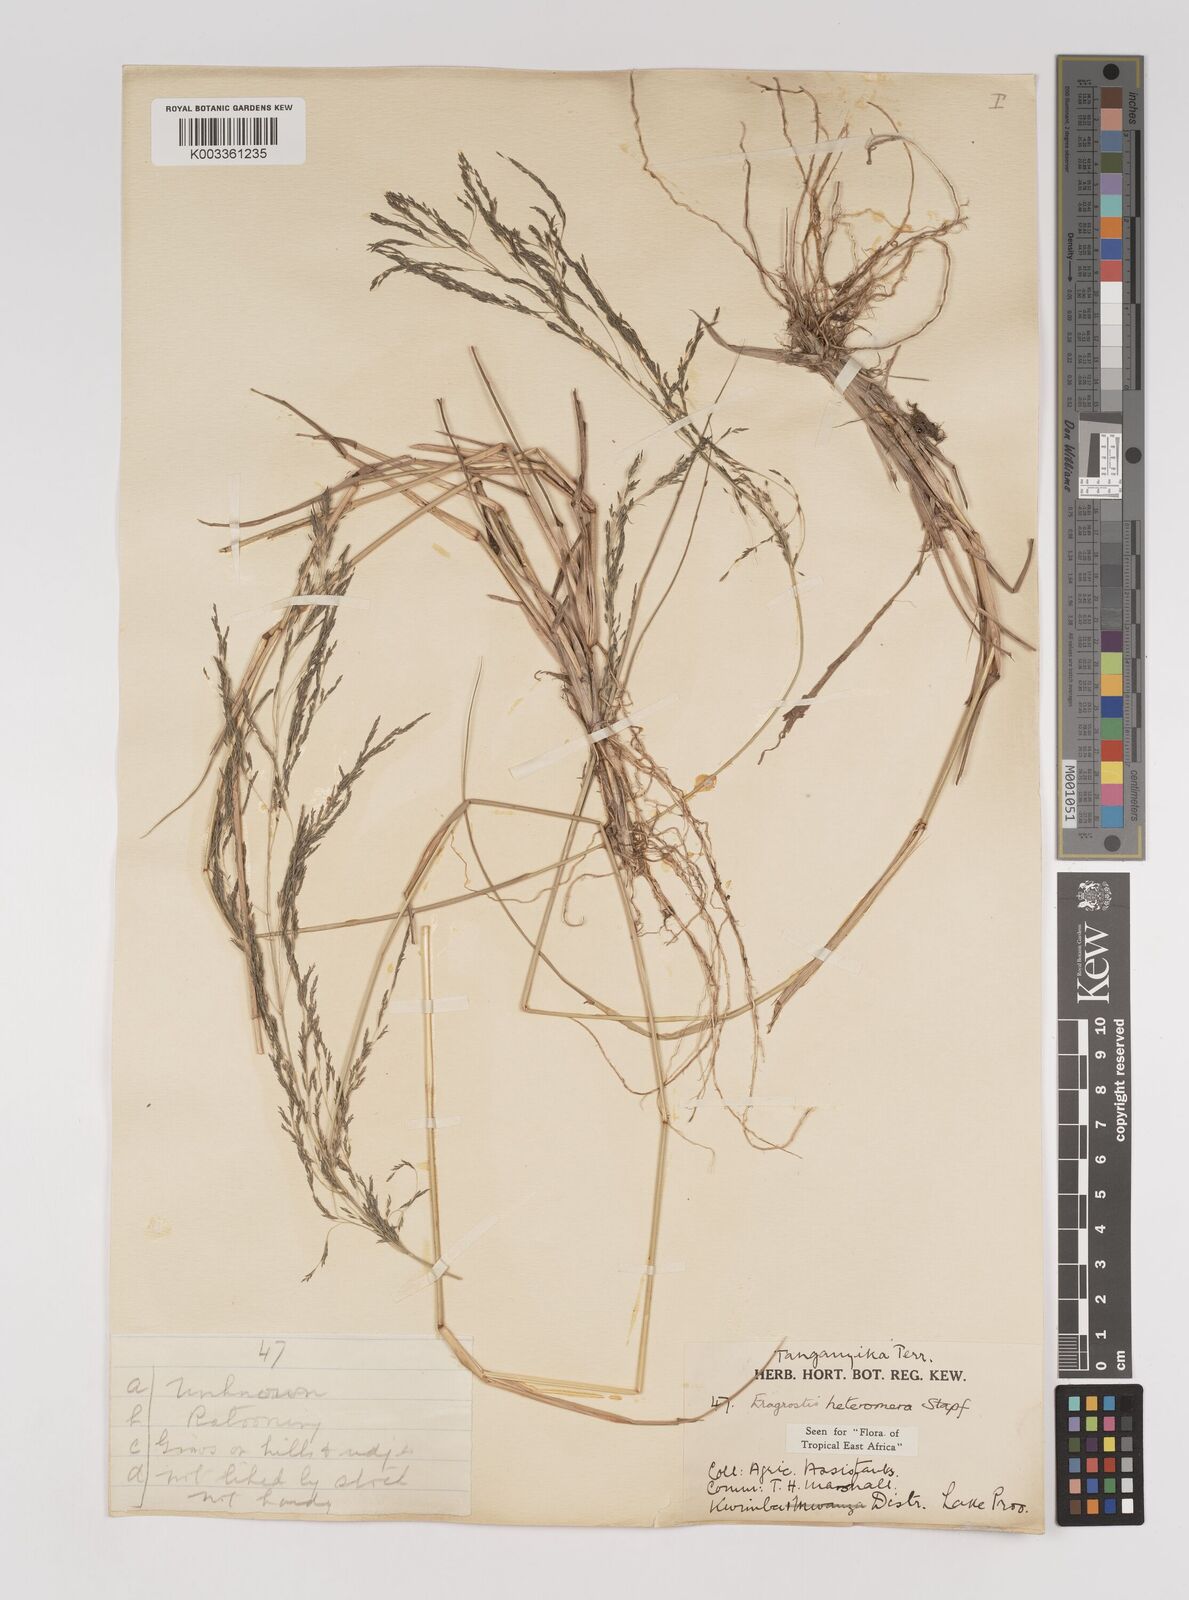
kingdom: Plantae
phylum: Tracheophyta
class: Liliopsida
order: Poales
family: Poaceae
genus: Eragrostis
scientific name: Eragrostis heteromera
